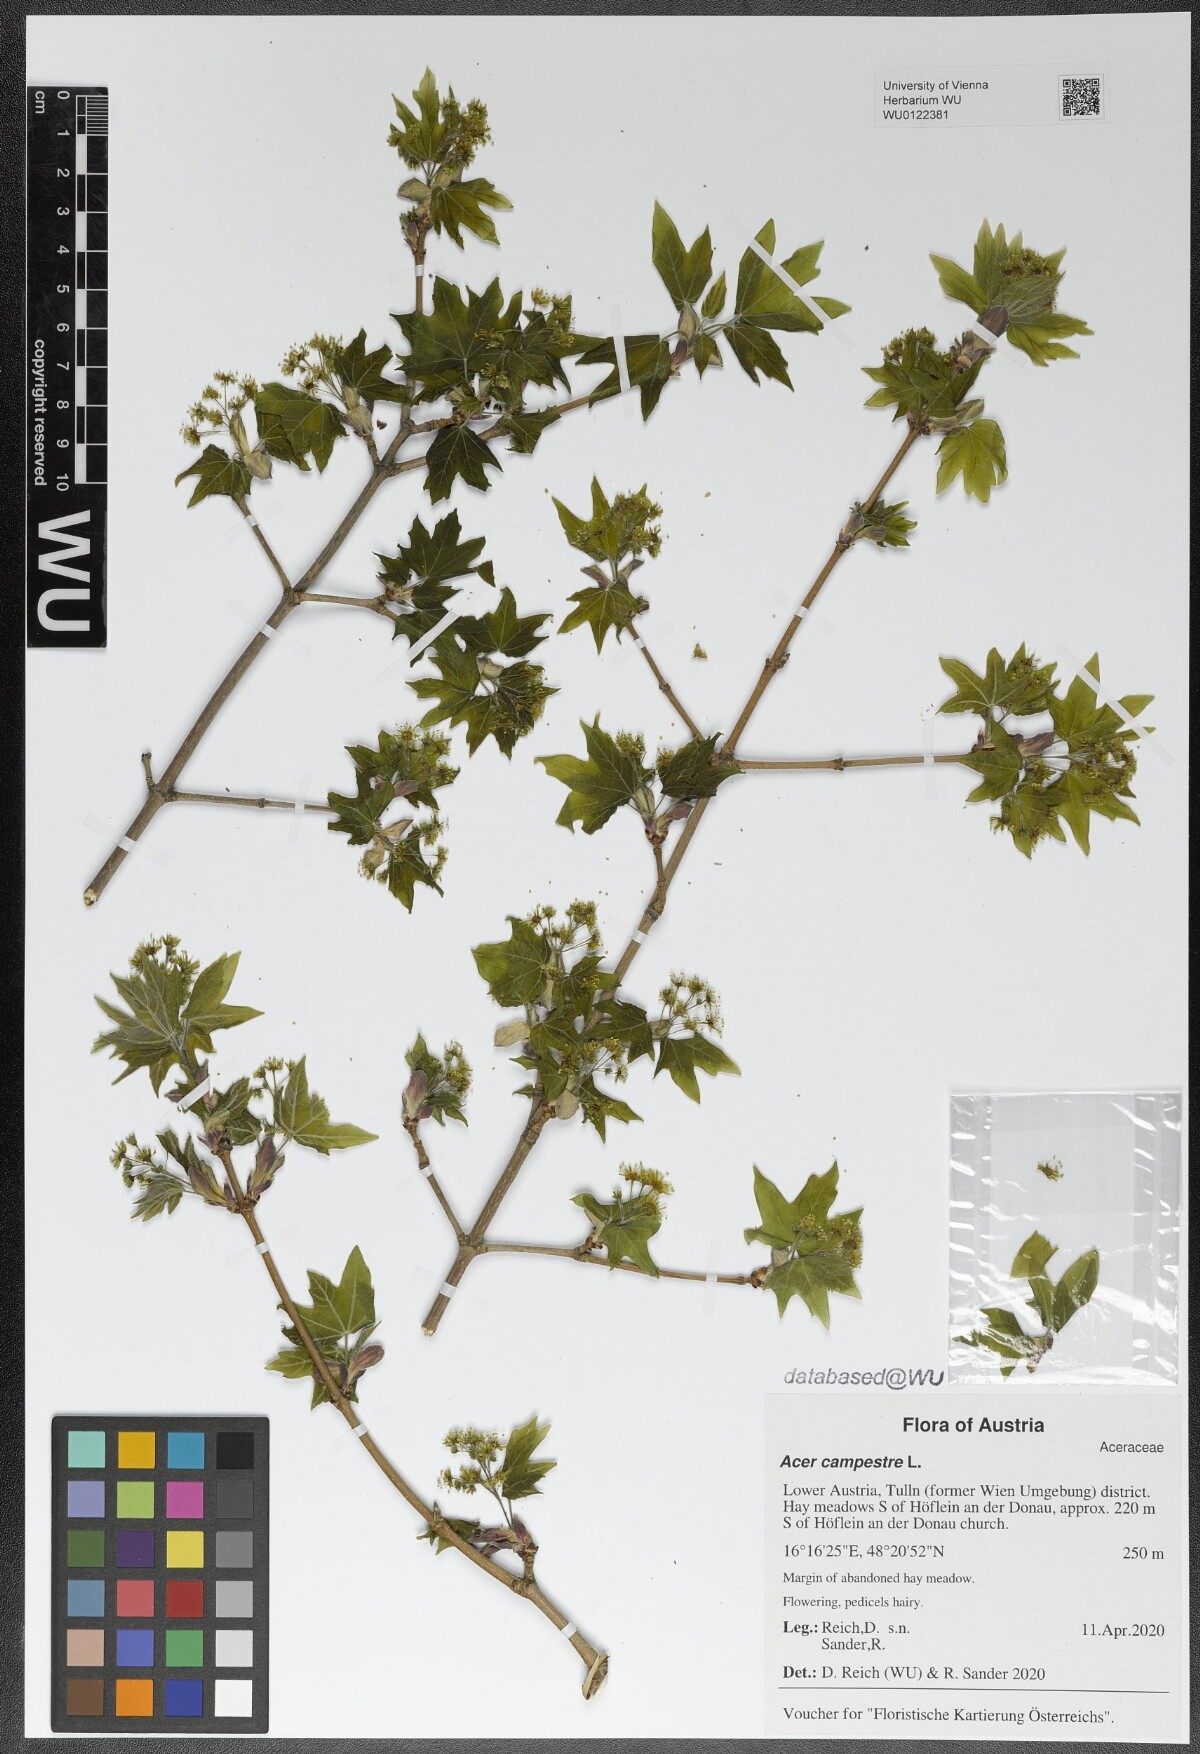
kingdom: Plantae
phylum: Tracheophyta
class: Magnoliopsida
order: Sapindales
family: Sapindaceae
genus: Acer
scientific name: Acer campestre
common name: Field maple
